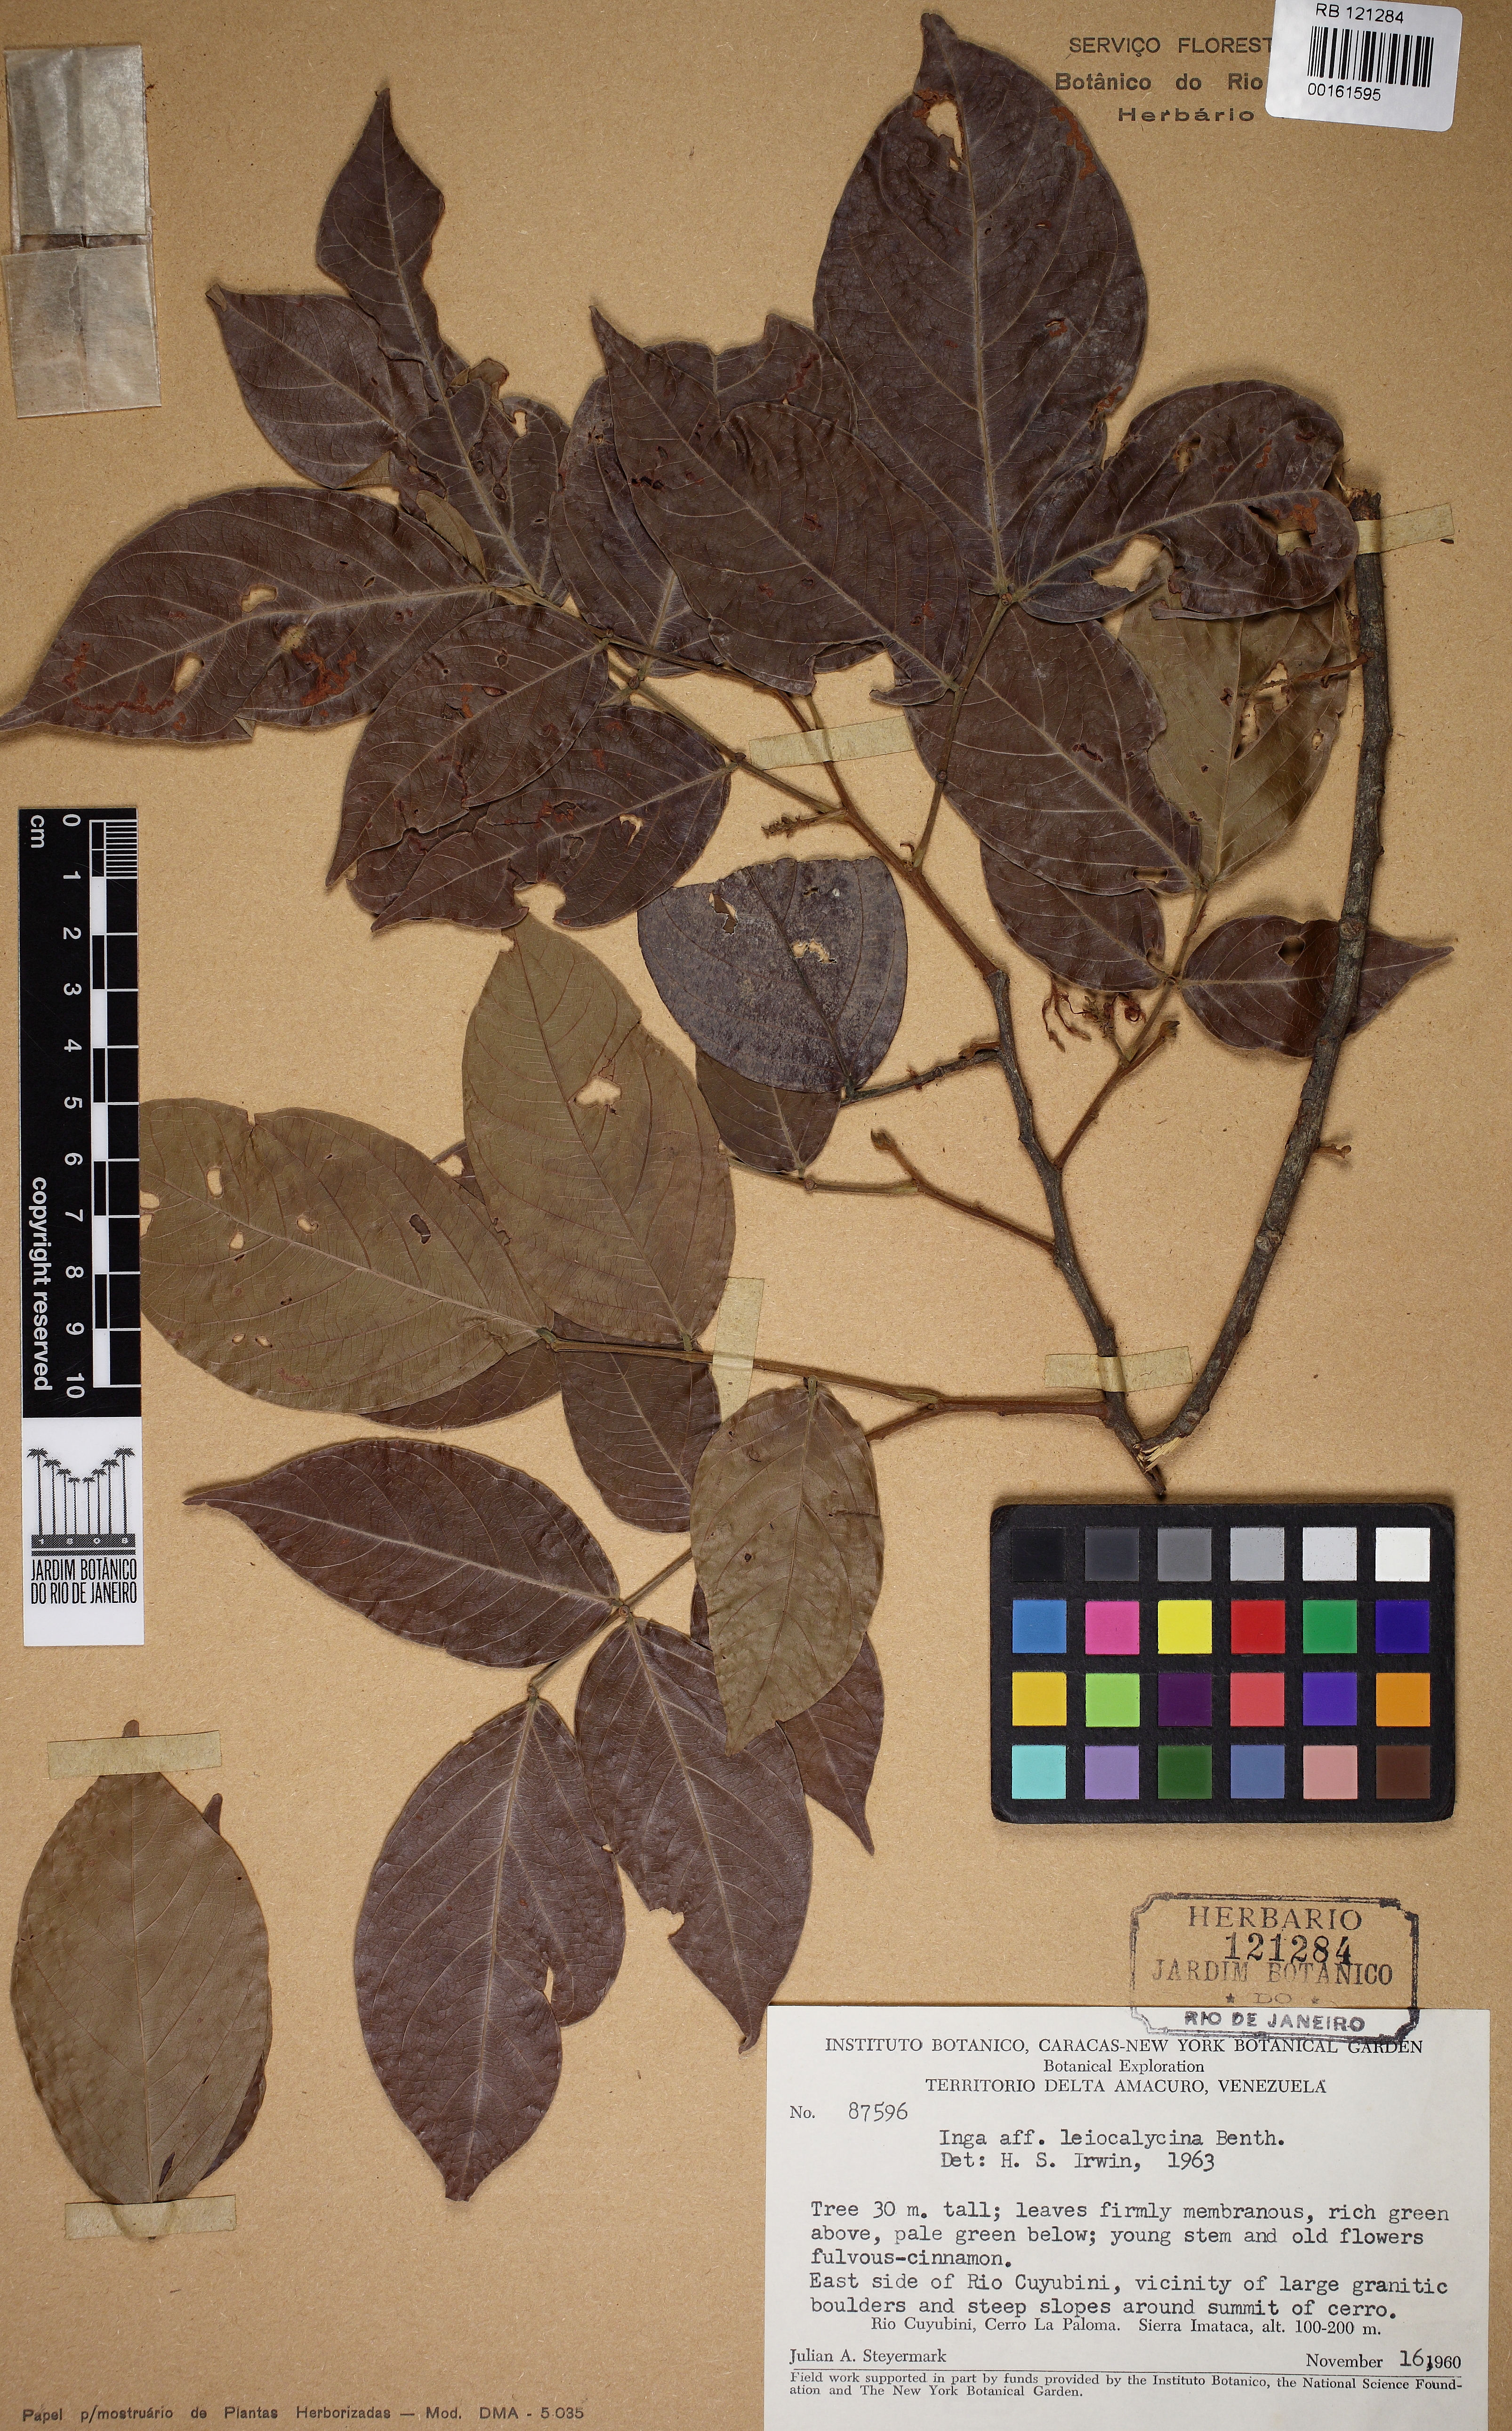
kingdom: Plantae
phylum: Tracheophyta
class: Magnoliopsida
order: Fabales
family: Fabaceae
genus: Inga
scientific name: Inga laevigata
